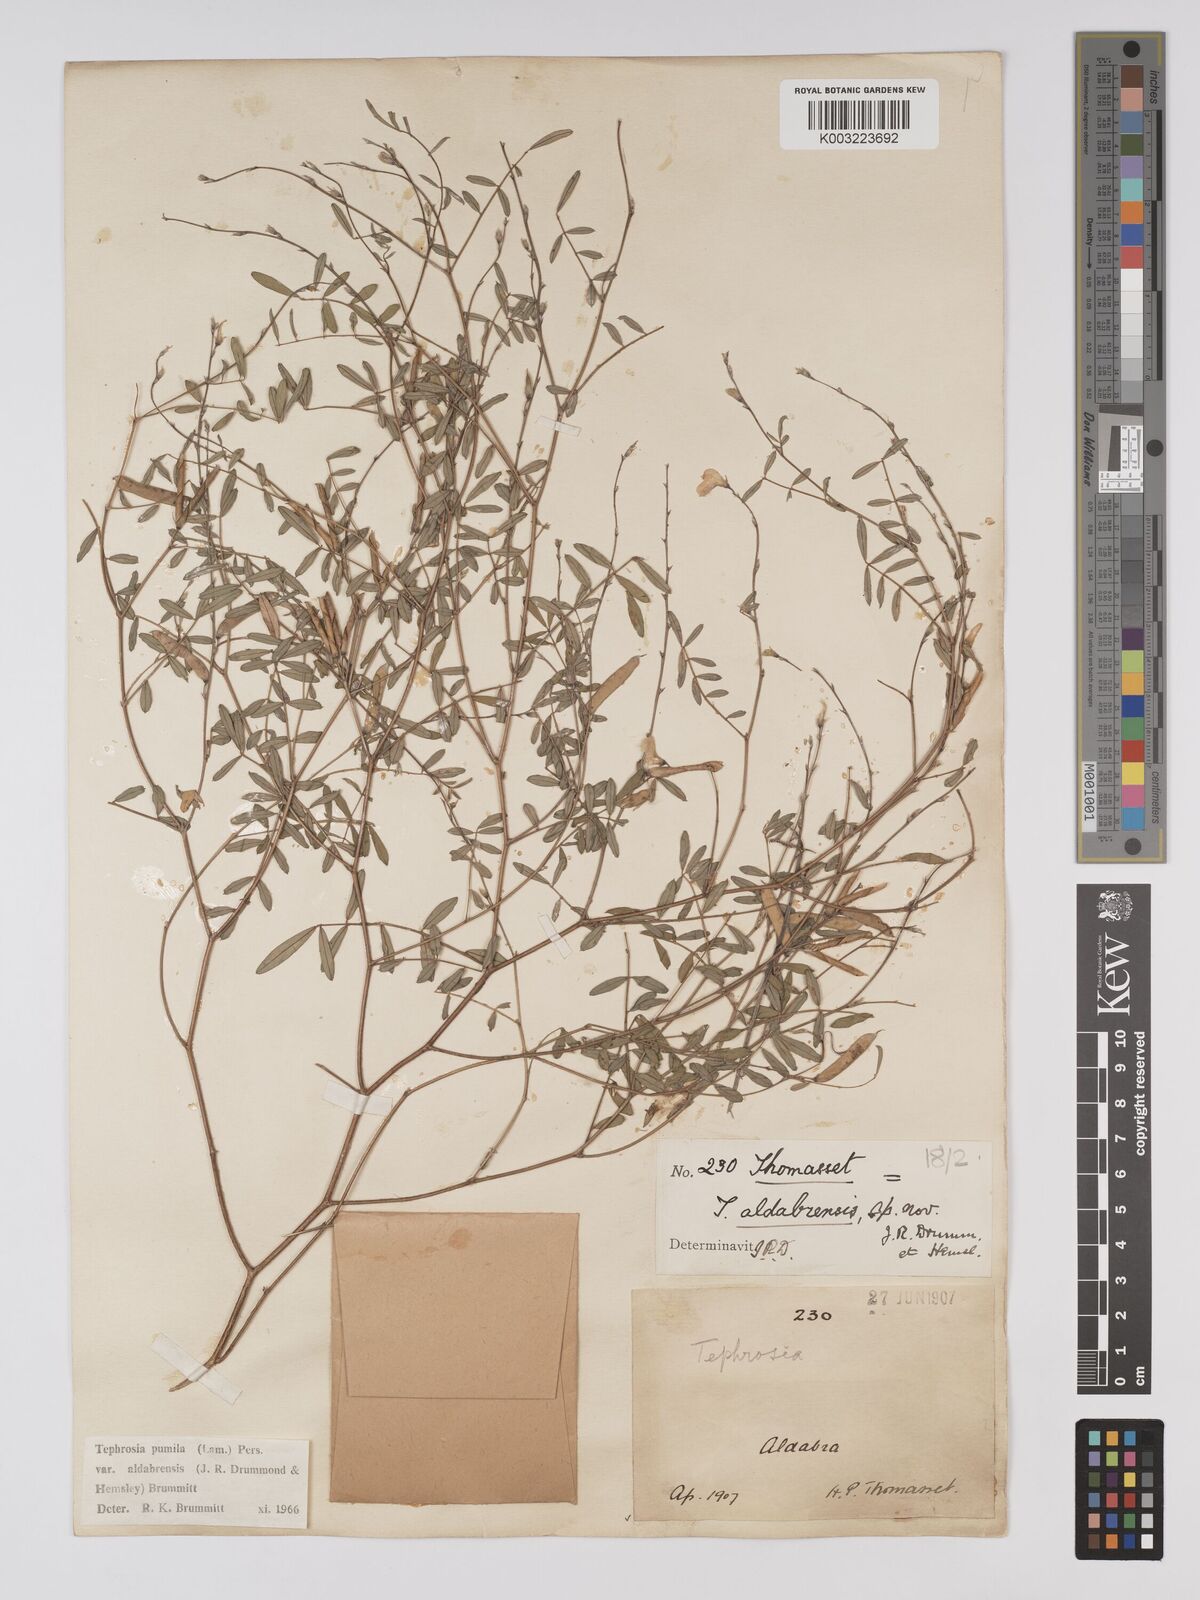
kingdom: Plantae
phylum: Tracheophyta
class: Magnoliopsida
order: Fabales
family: Fabaceae
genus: Tephrosia
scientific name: Tephrosia pumila
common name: Indigo sauvage
